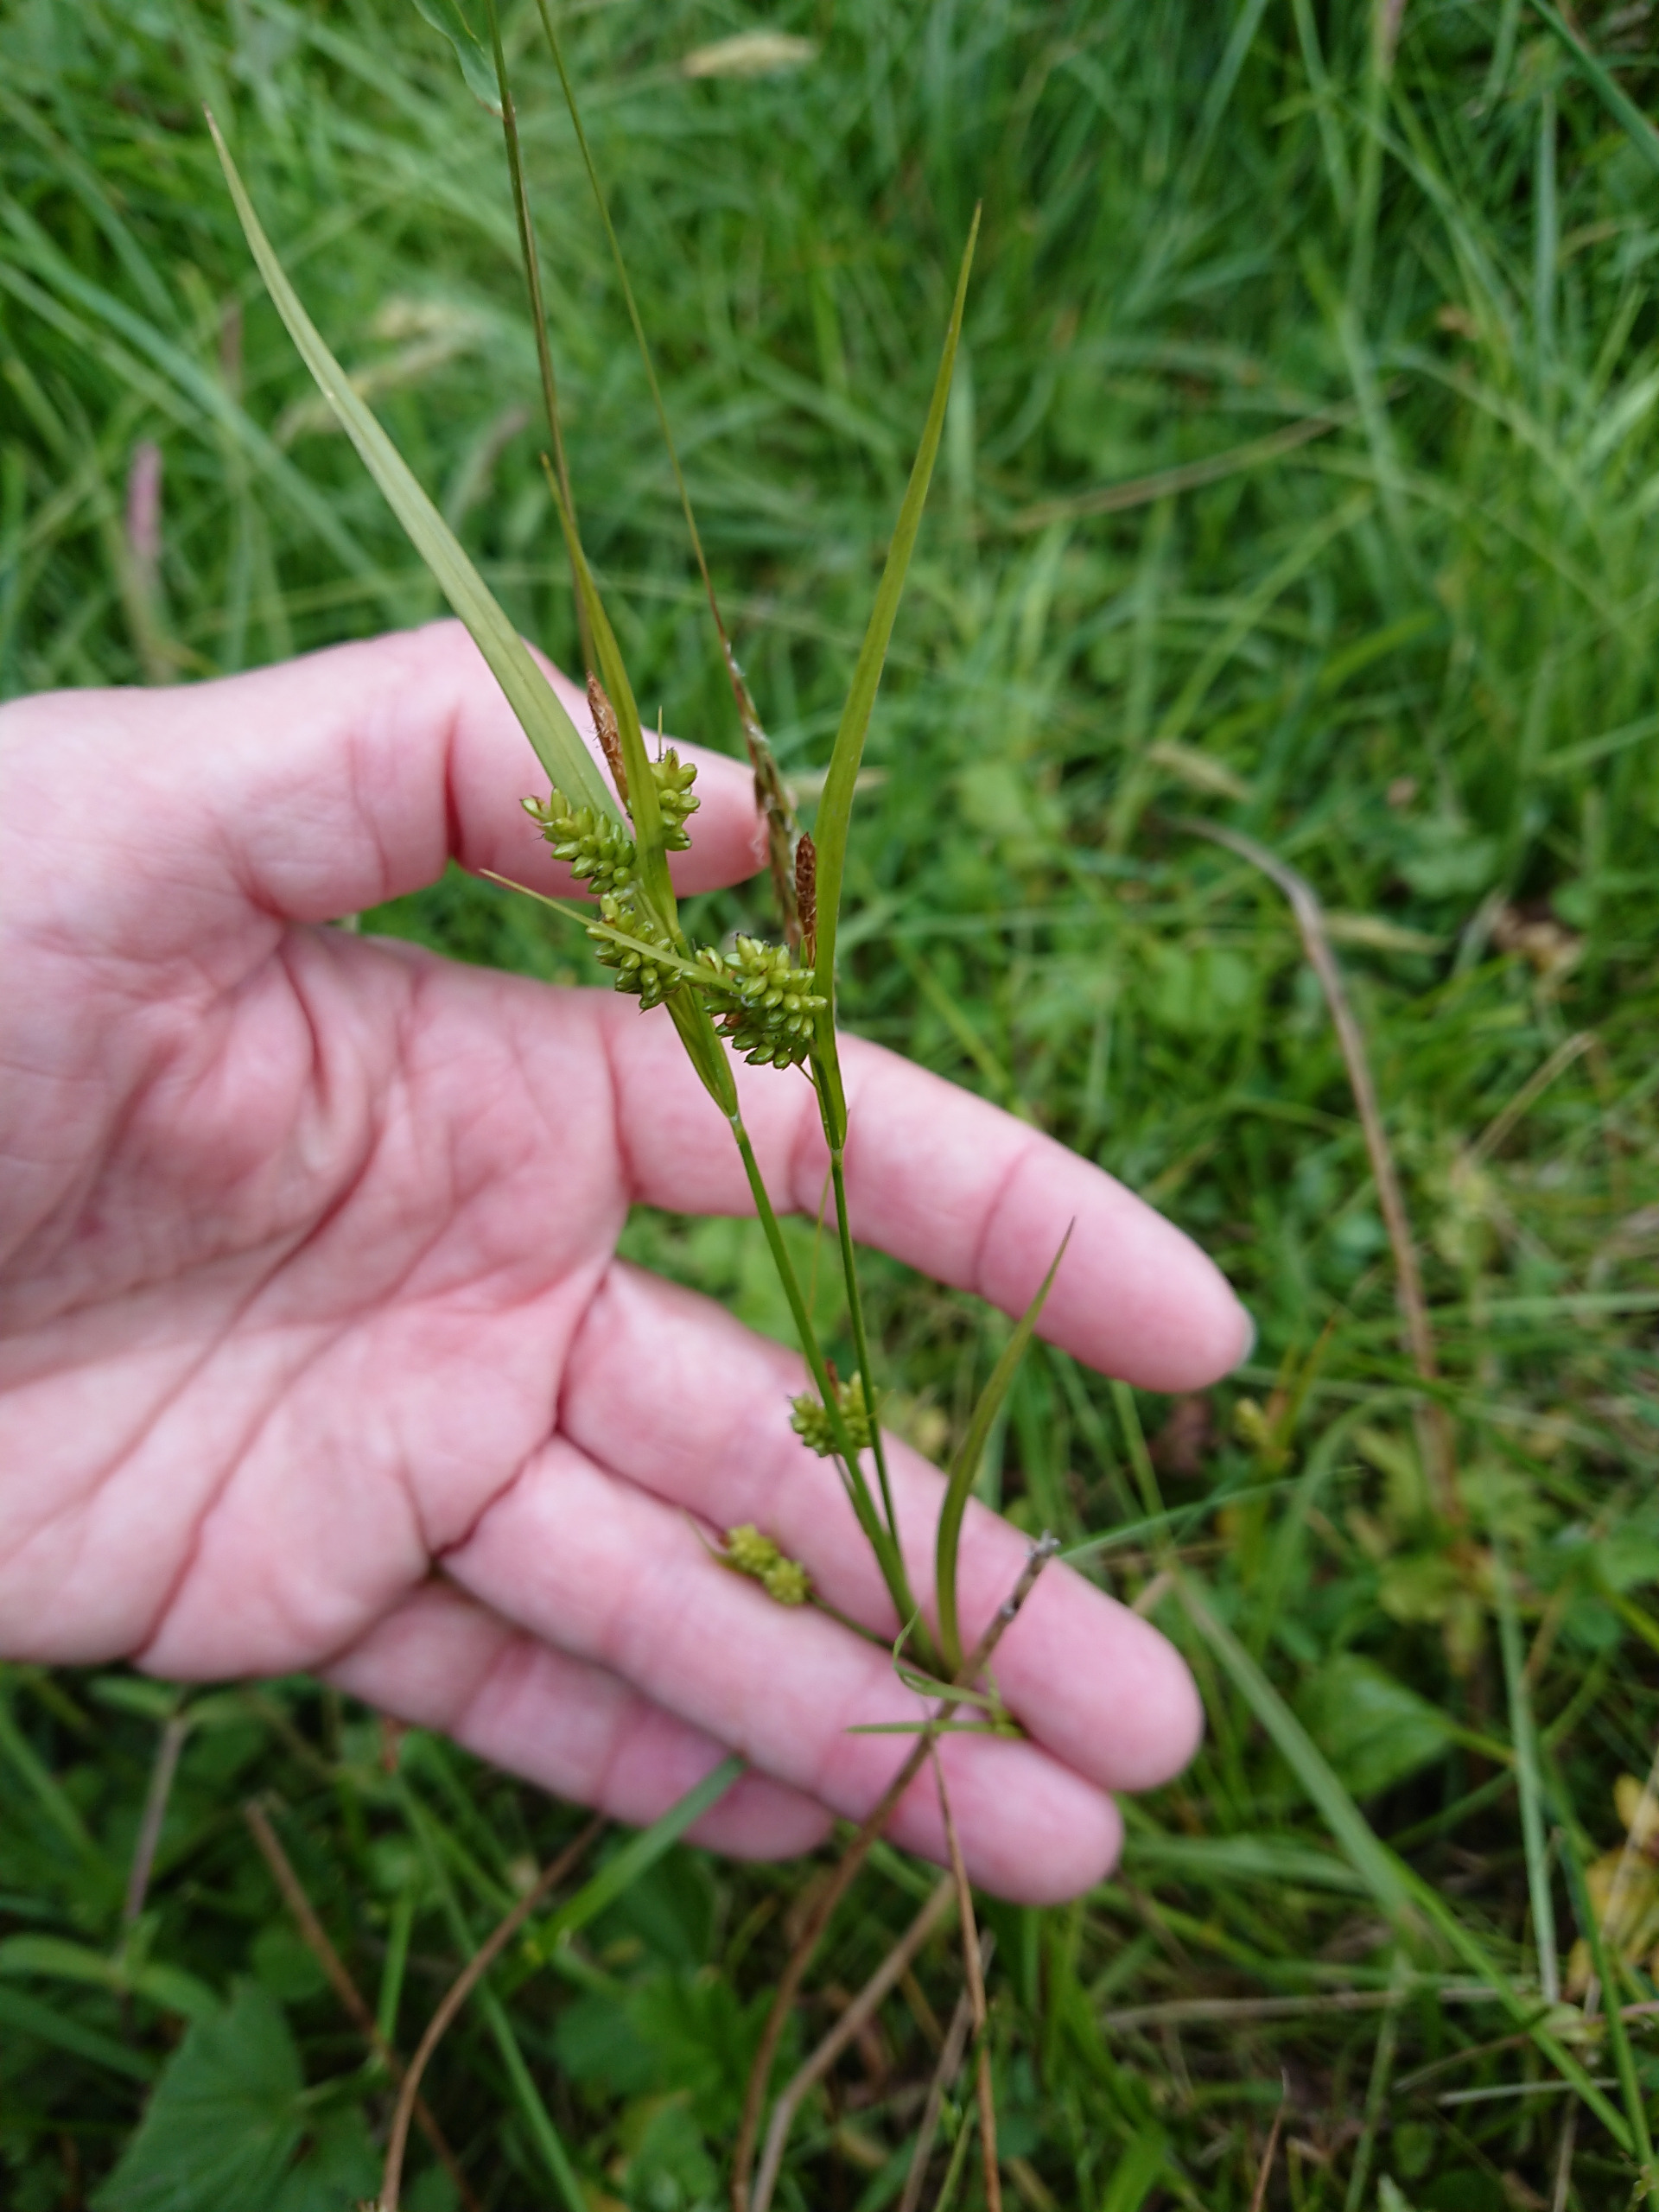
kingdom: Plantae
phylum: Tracheophyta
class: Liliopsida
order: Poales
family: Cyperaceae
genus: Carex
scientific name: Carex pallescens
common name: Bleg star
